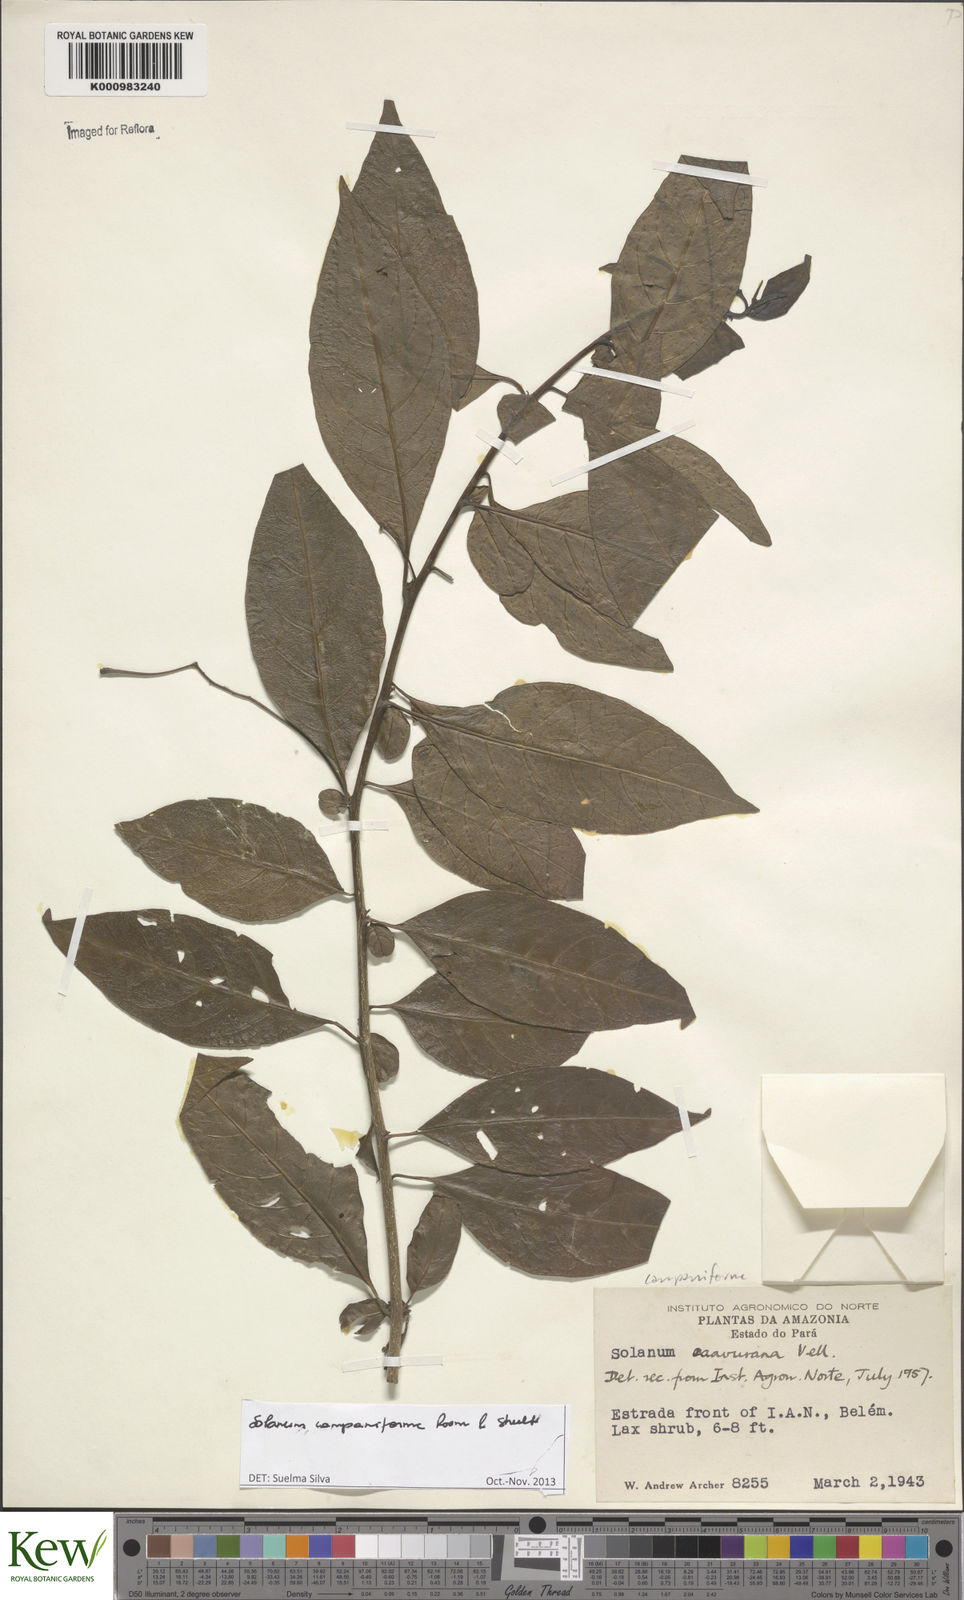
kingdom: Plantae
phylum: Tracheophyta
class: Magnoliopsida
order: Solanales
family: Solanaceae
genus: Solanum
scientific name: Solanum campaniforme
